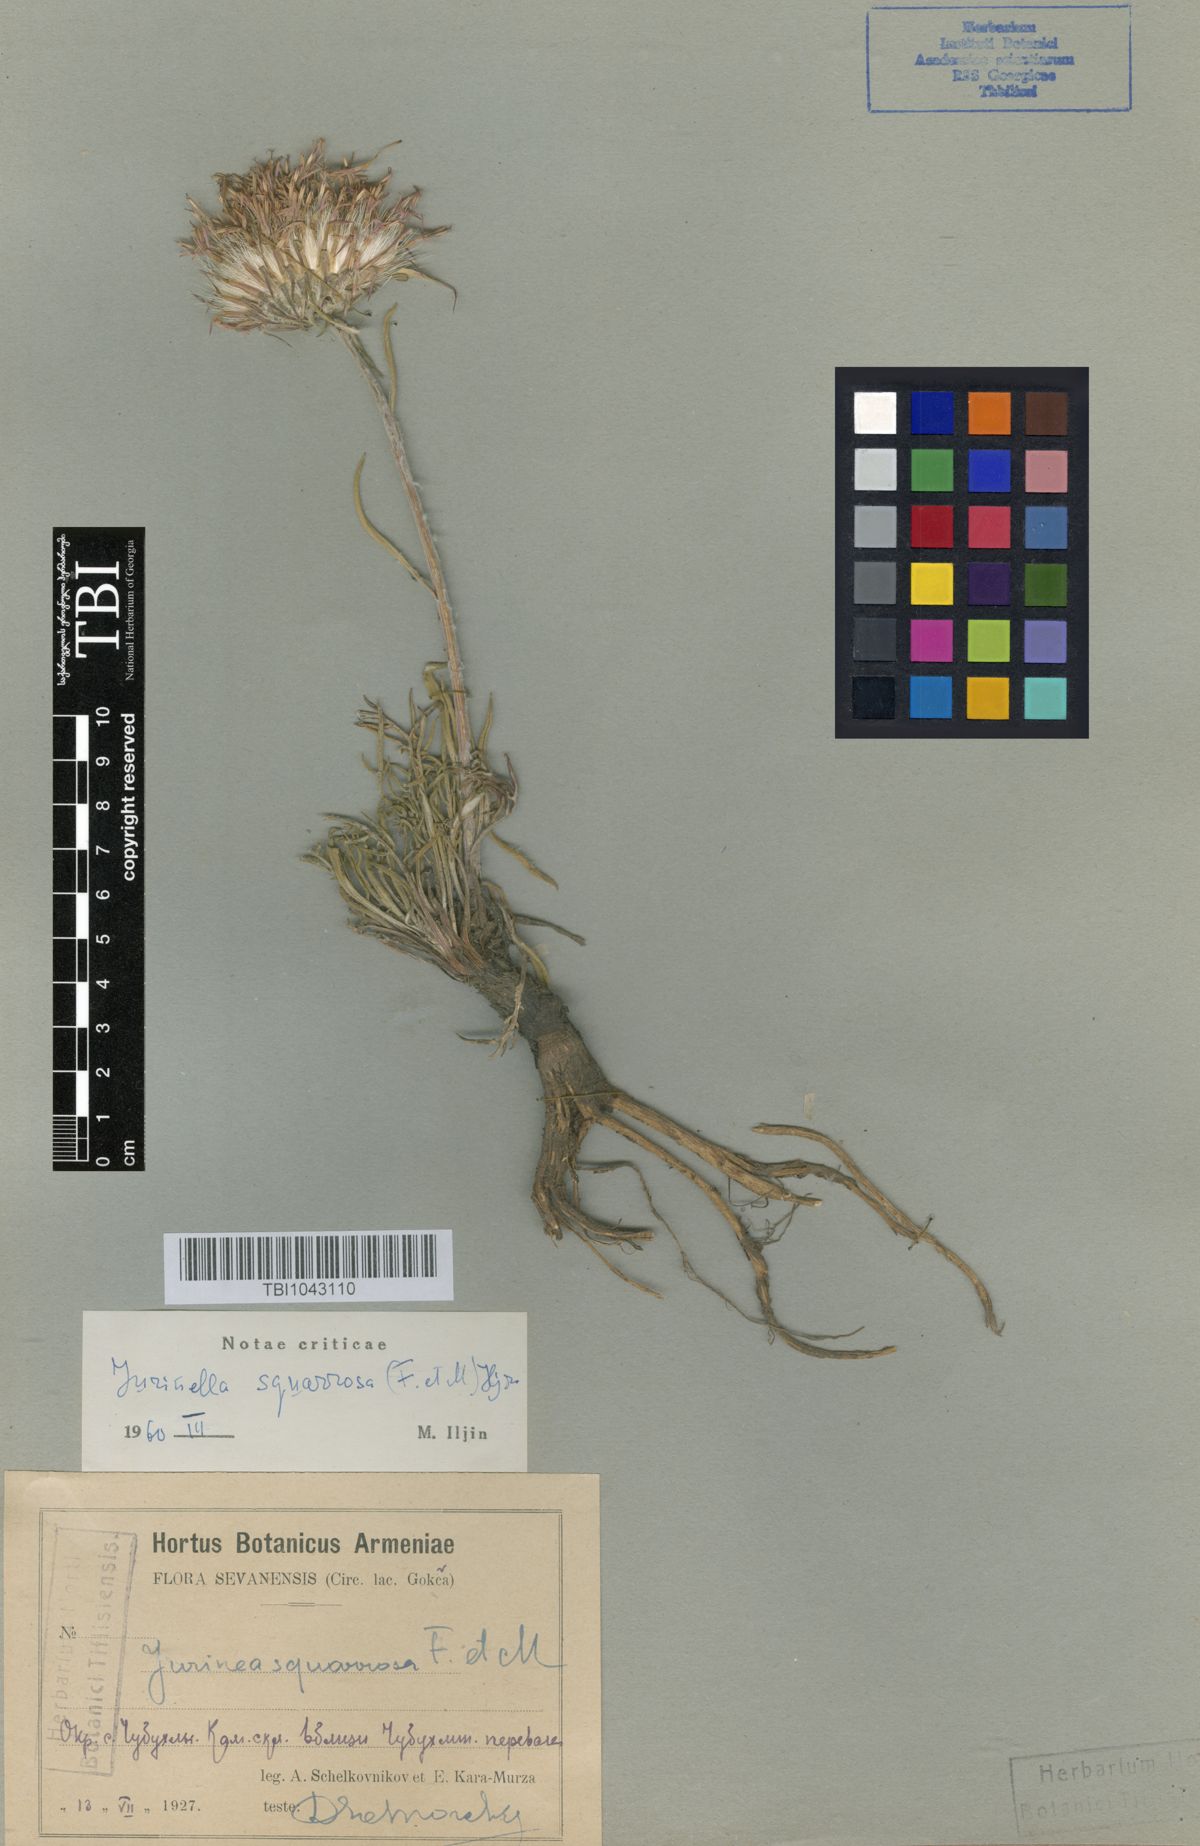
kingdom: Plantae
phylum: Tracheophyta
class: Magnoliopsida
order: Asterales
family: Asteraceae
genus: Jurinea
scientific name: Jurinea squarrosa
